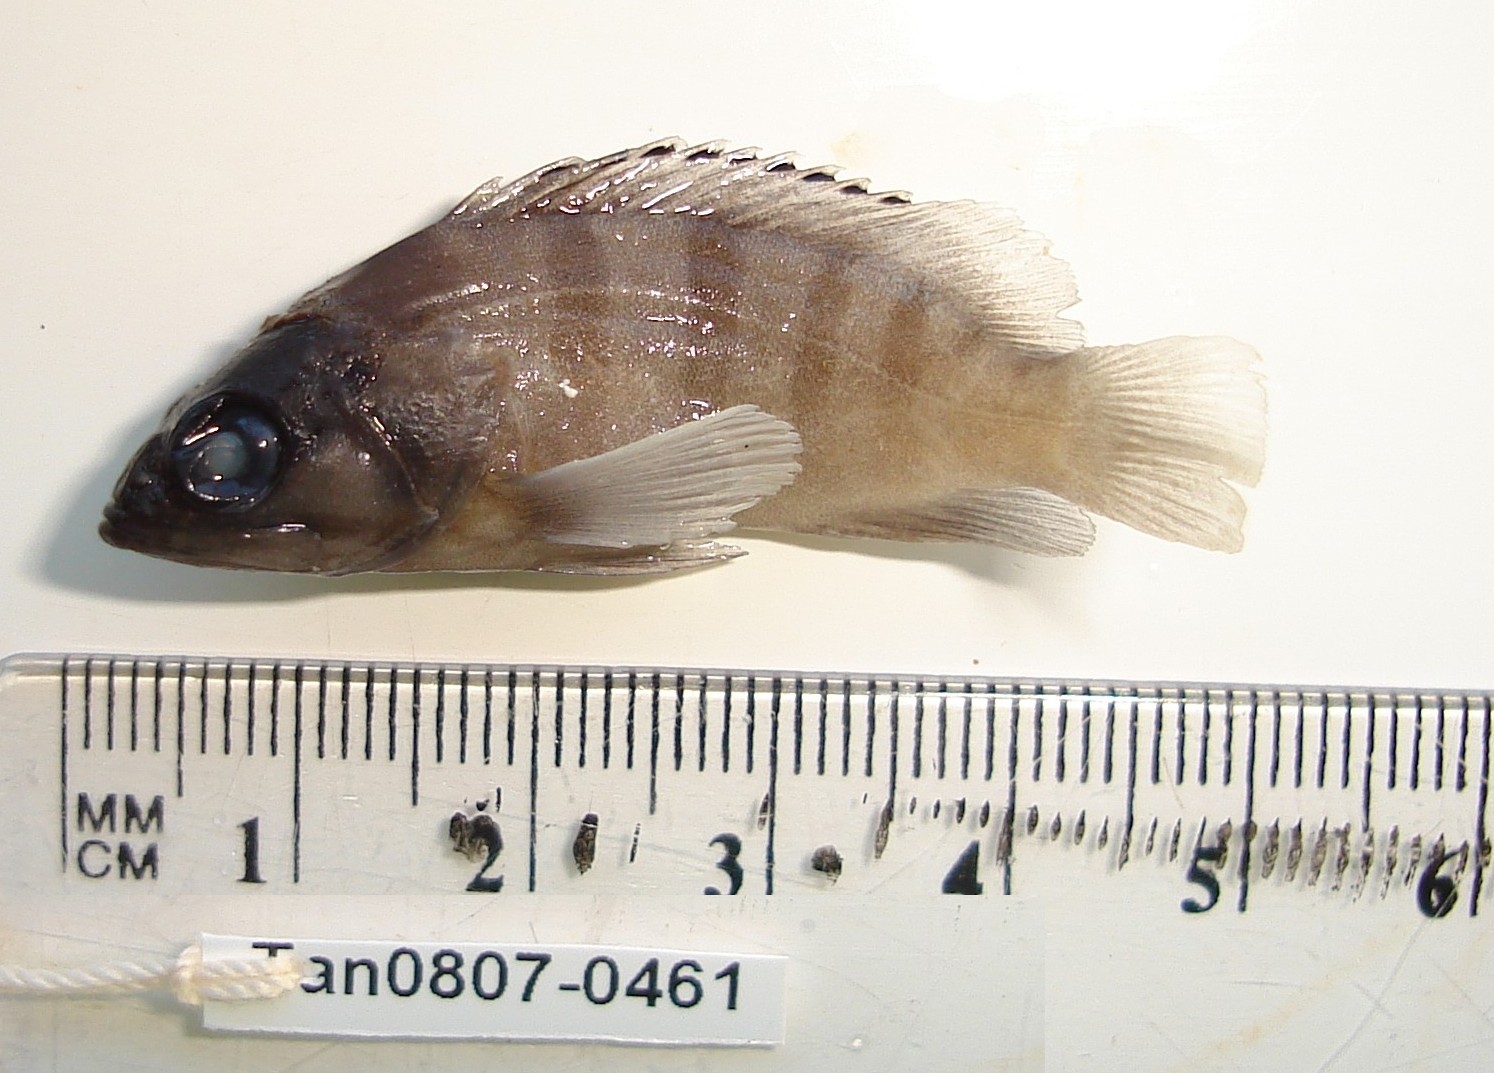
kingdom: Animalia
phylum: Chordata
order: Perciformes
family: Serranidae
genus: Epinephelus
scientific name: Epinephelus fasciatus
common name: Blacktip grouper
